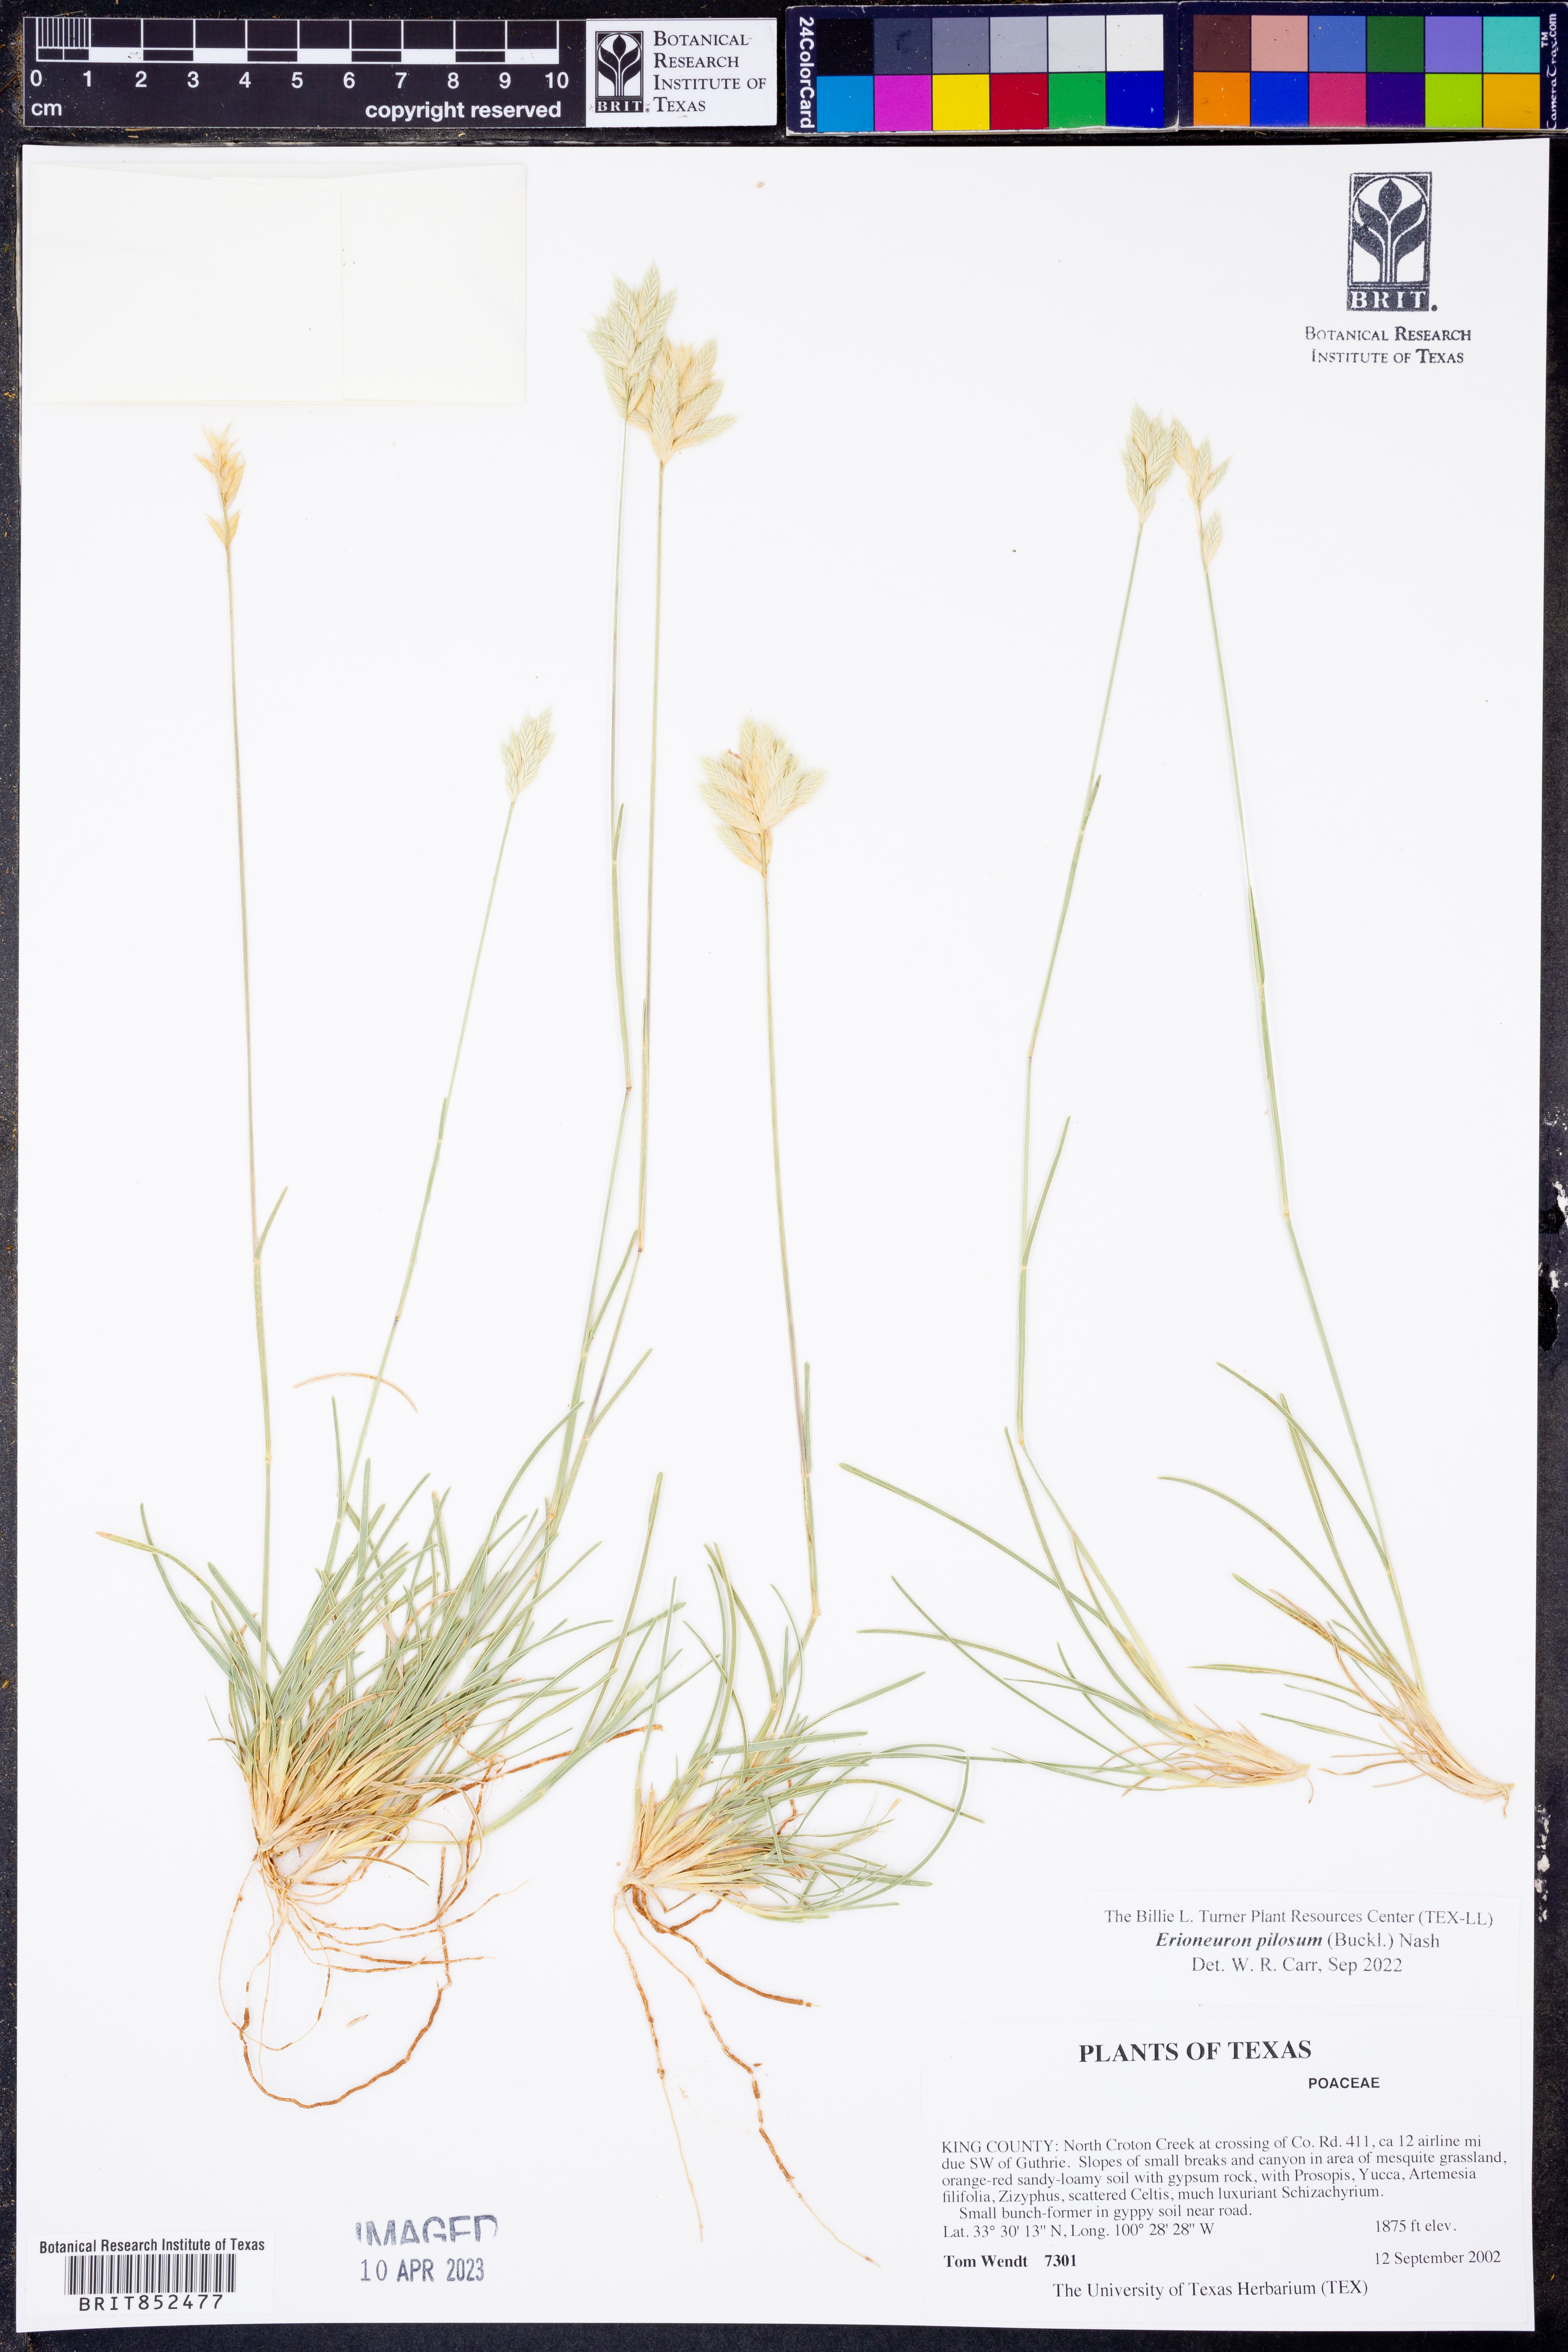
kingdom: Plantae
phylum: Tracheophyta
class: Liliopsida
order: Poales
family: Poaceae
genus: Erioneuron
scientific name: Erioneuron pilosum
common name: Hairy woolly grass
